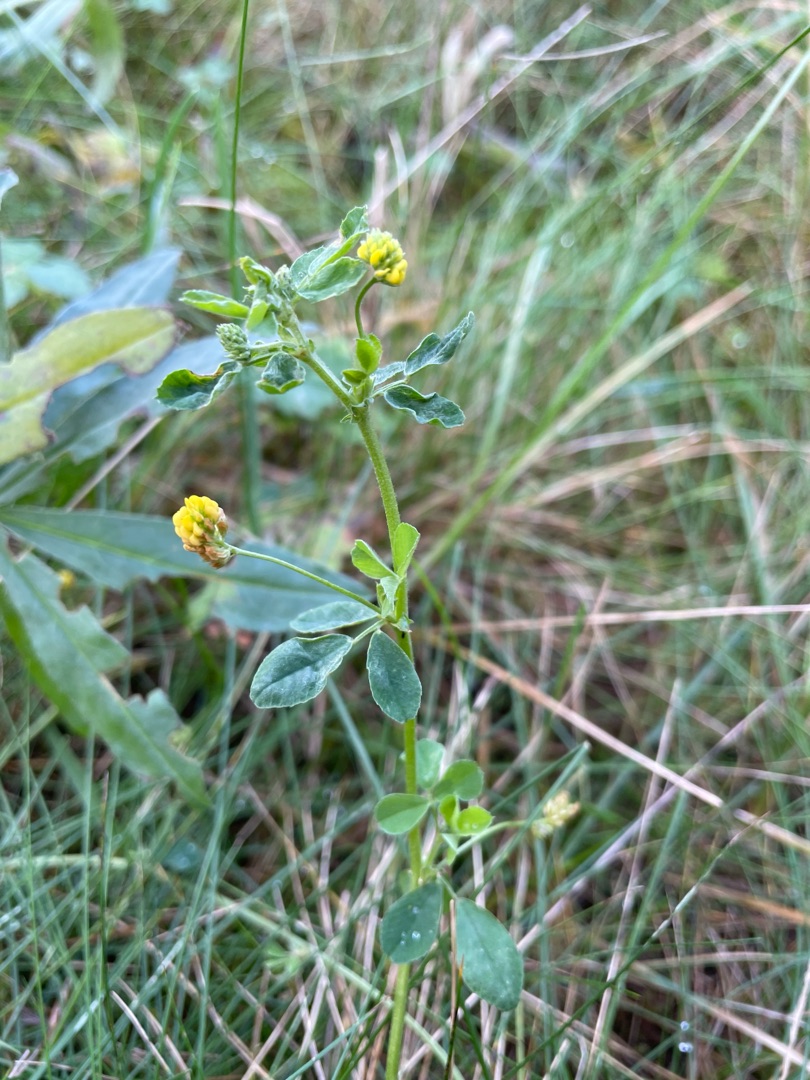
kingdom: Plantae
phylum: Tracheophyta
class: Magnoliopsida
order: Fabales
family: Fabaceae
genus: Medicago
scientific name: Medicago lupulina
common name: Humle-sneglebælg
